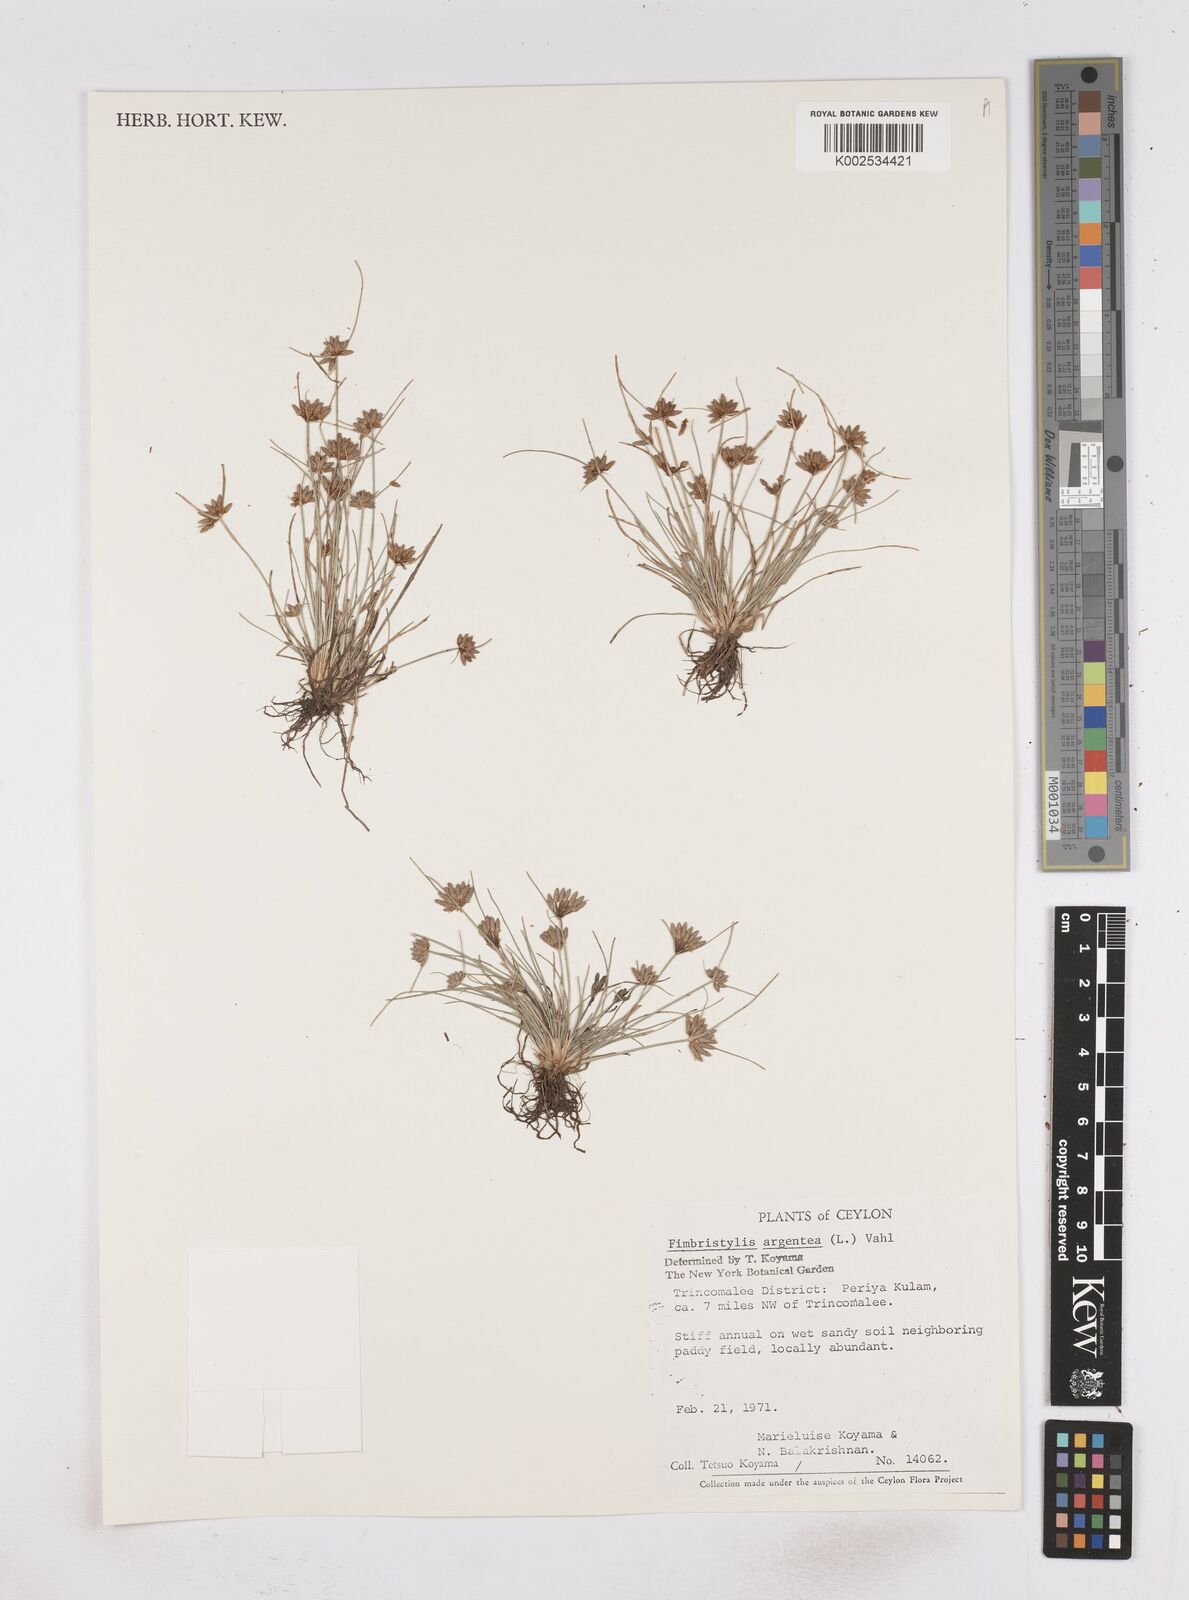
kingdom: Plantae
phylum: Tracheophyta
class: Liliopsida
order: Poales
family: Cyperaceae
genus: Fimbristylis
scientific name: Fimbristylis argentea
